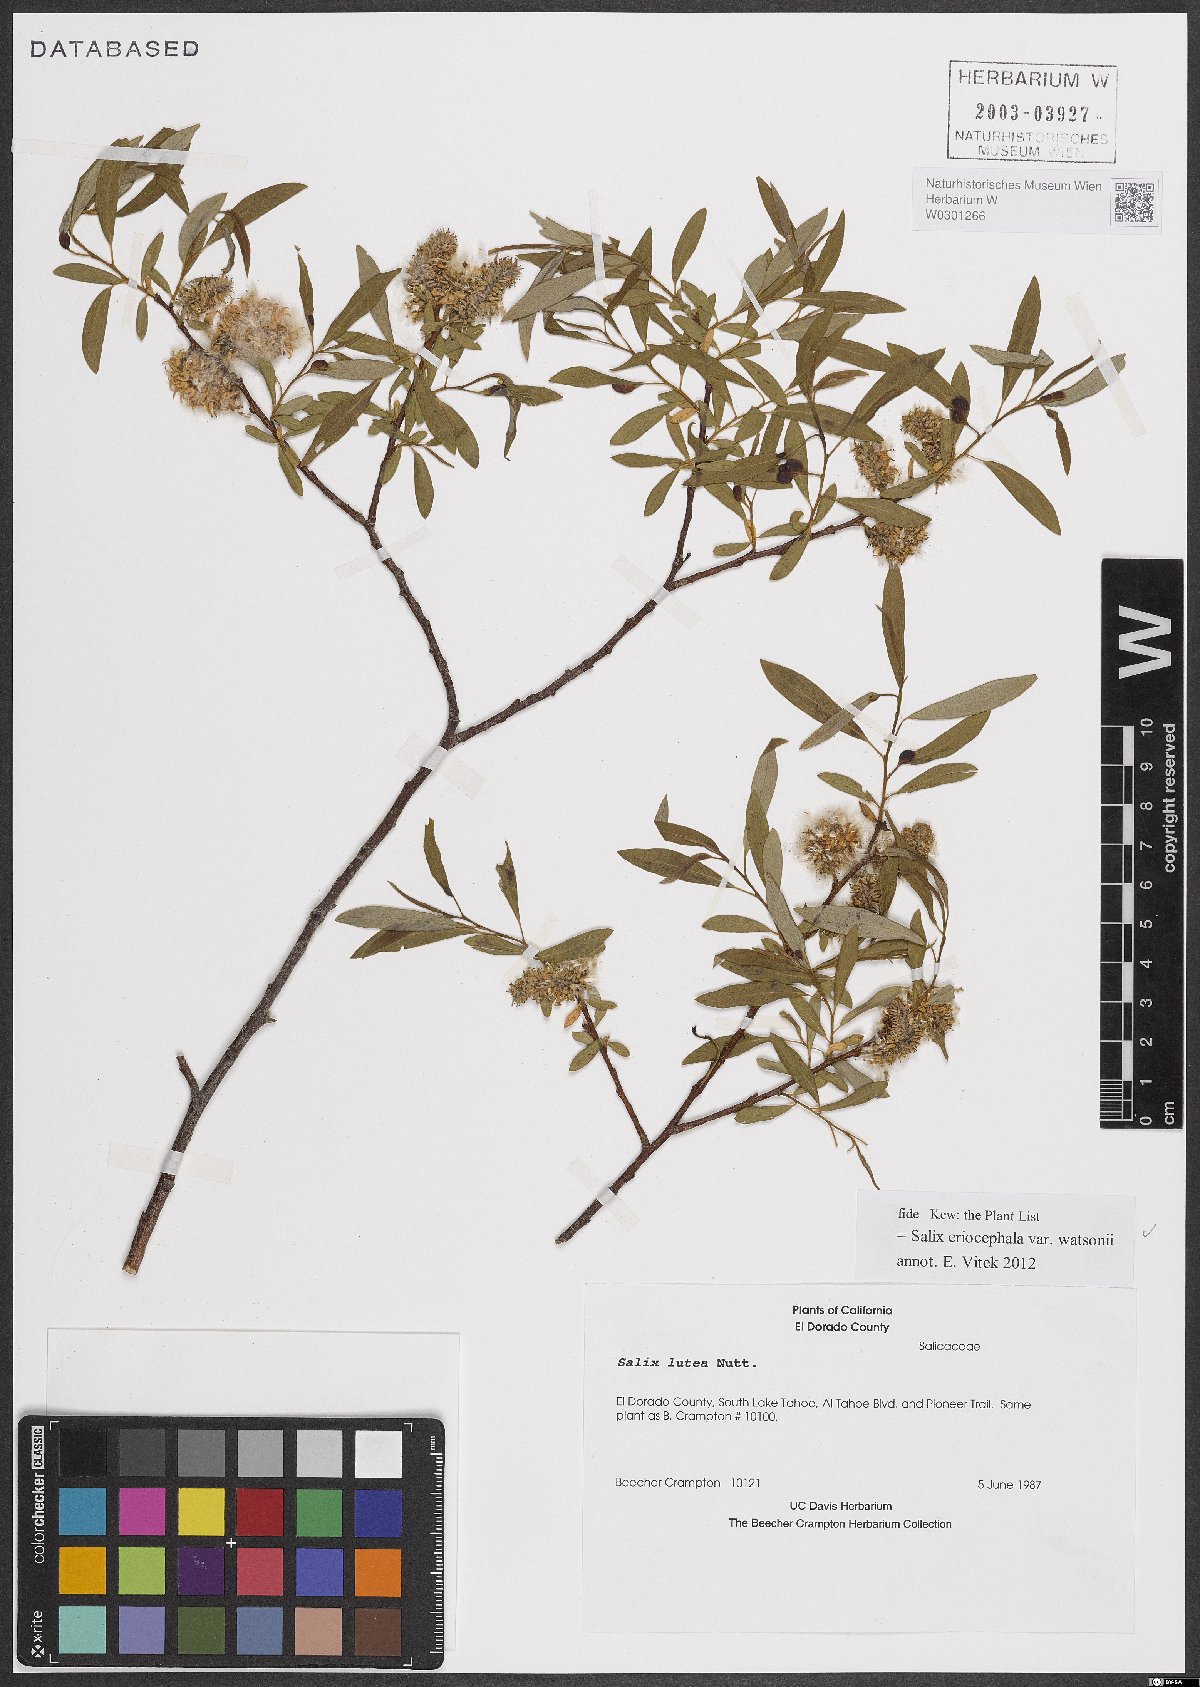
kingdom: Plantae
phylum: Tracheophyta
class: Magnoliopsida
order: Malpighiales
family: Salicaceae
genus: Salix
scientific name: Salix lutea
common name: Yellow willow
